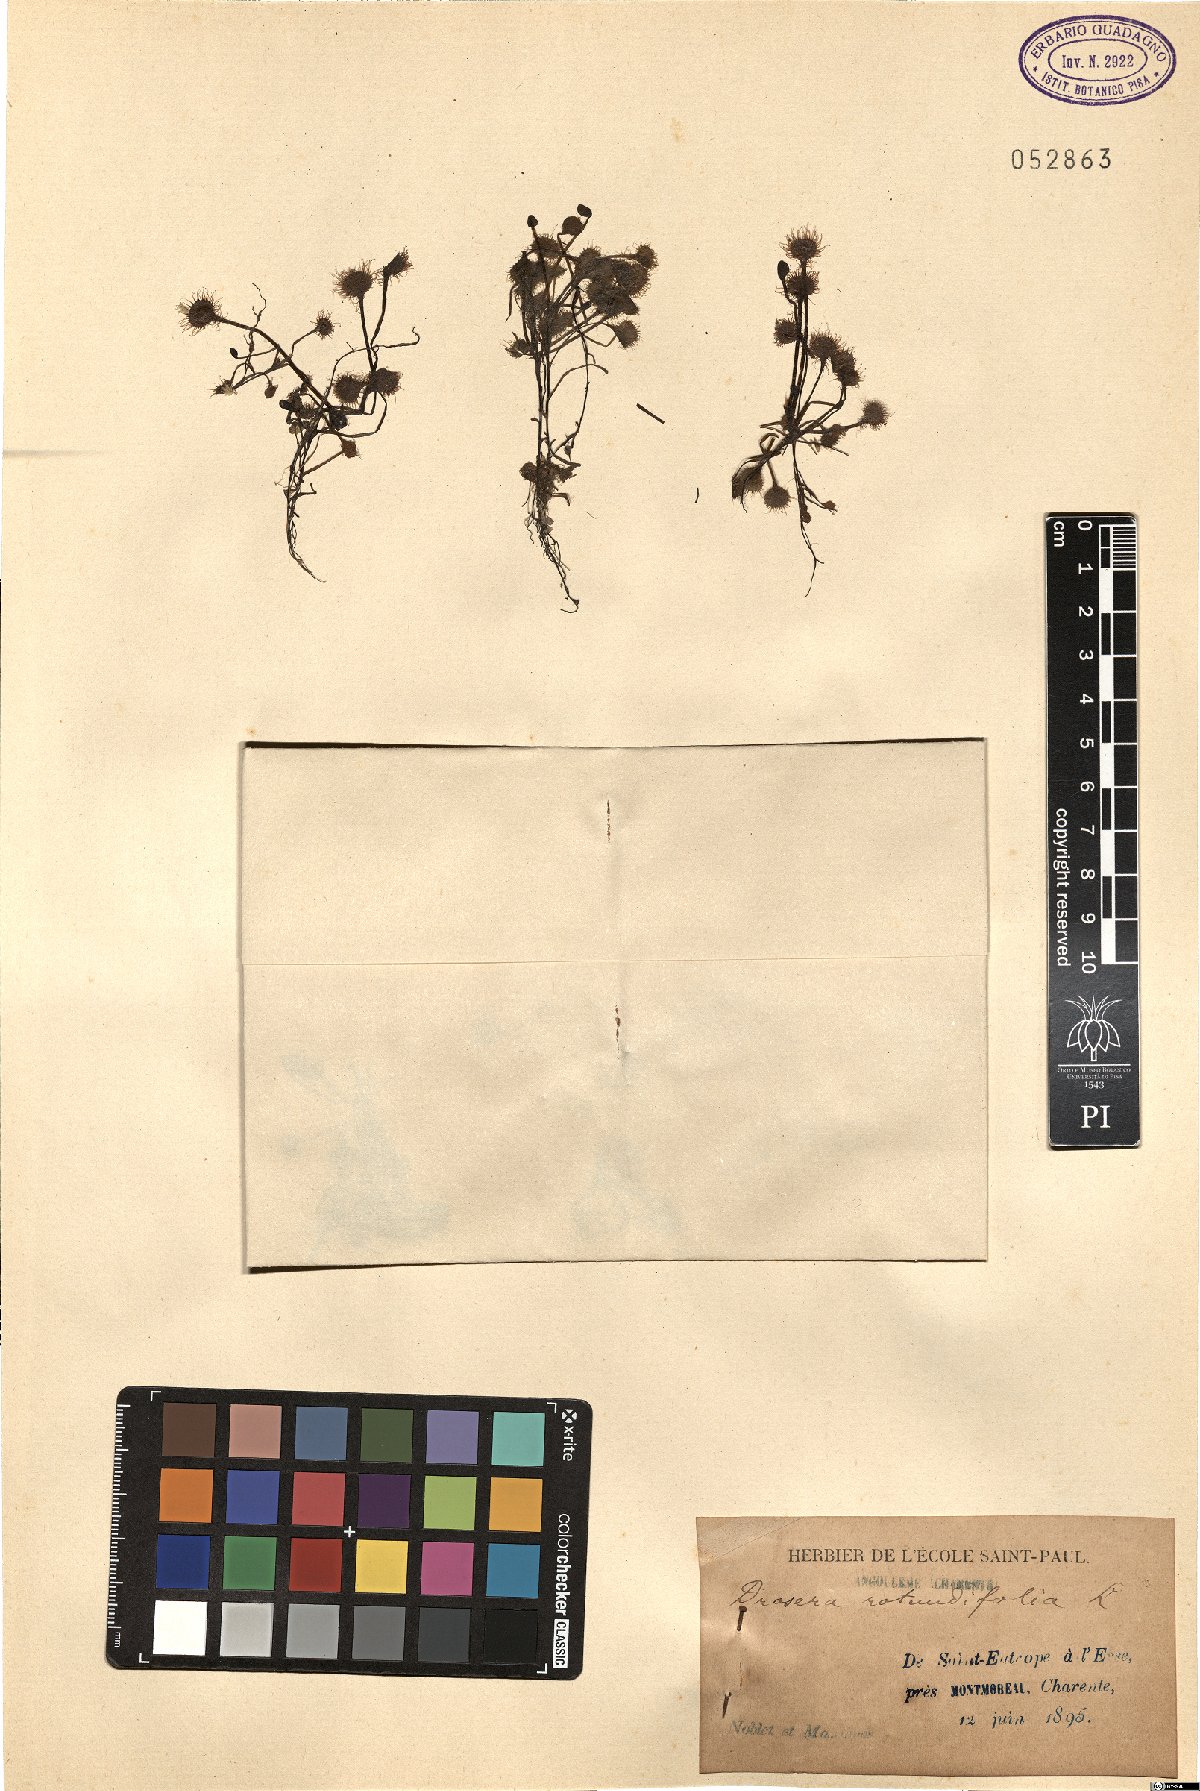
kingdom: Plantae
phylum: Tracheophyta
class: Magnoliopsida
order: Caryophyllales
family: Droseraceae
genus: Drosera
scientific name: Drosera rotundifolia
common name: Round-leaved sundew
